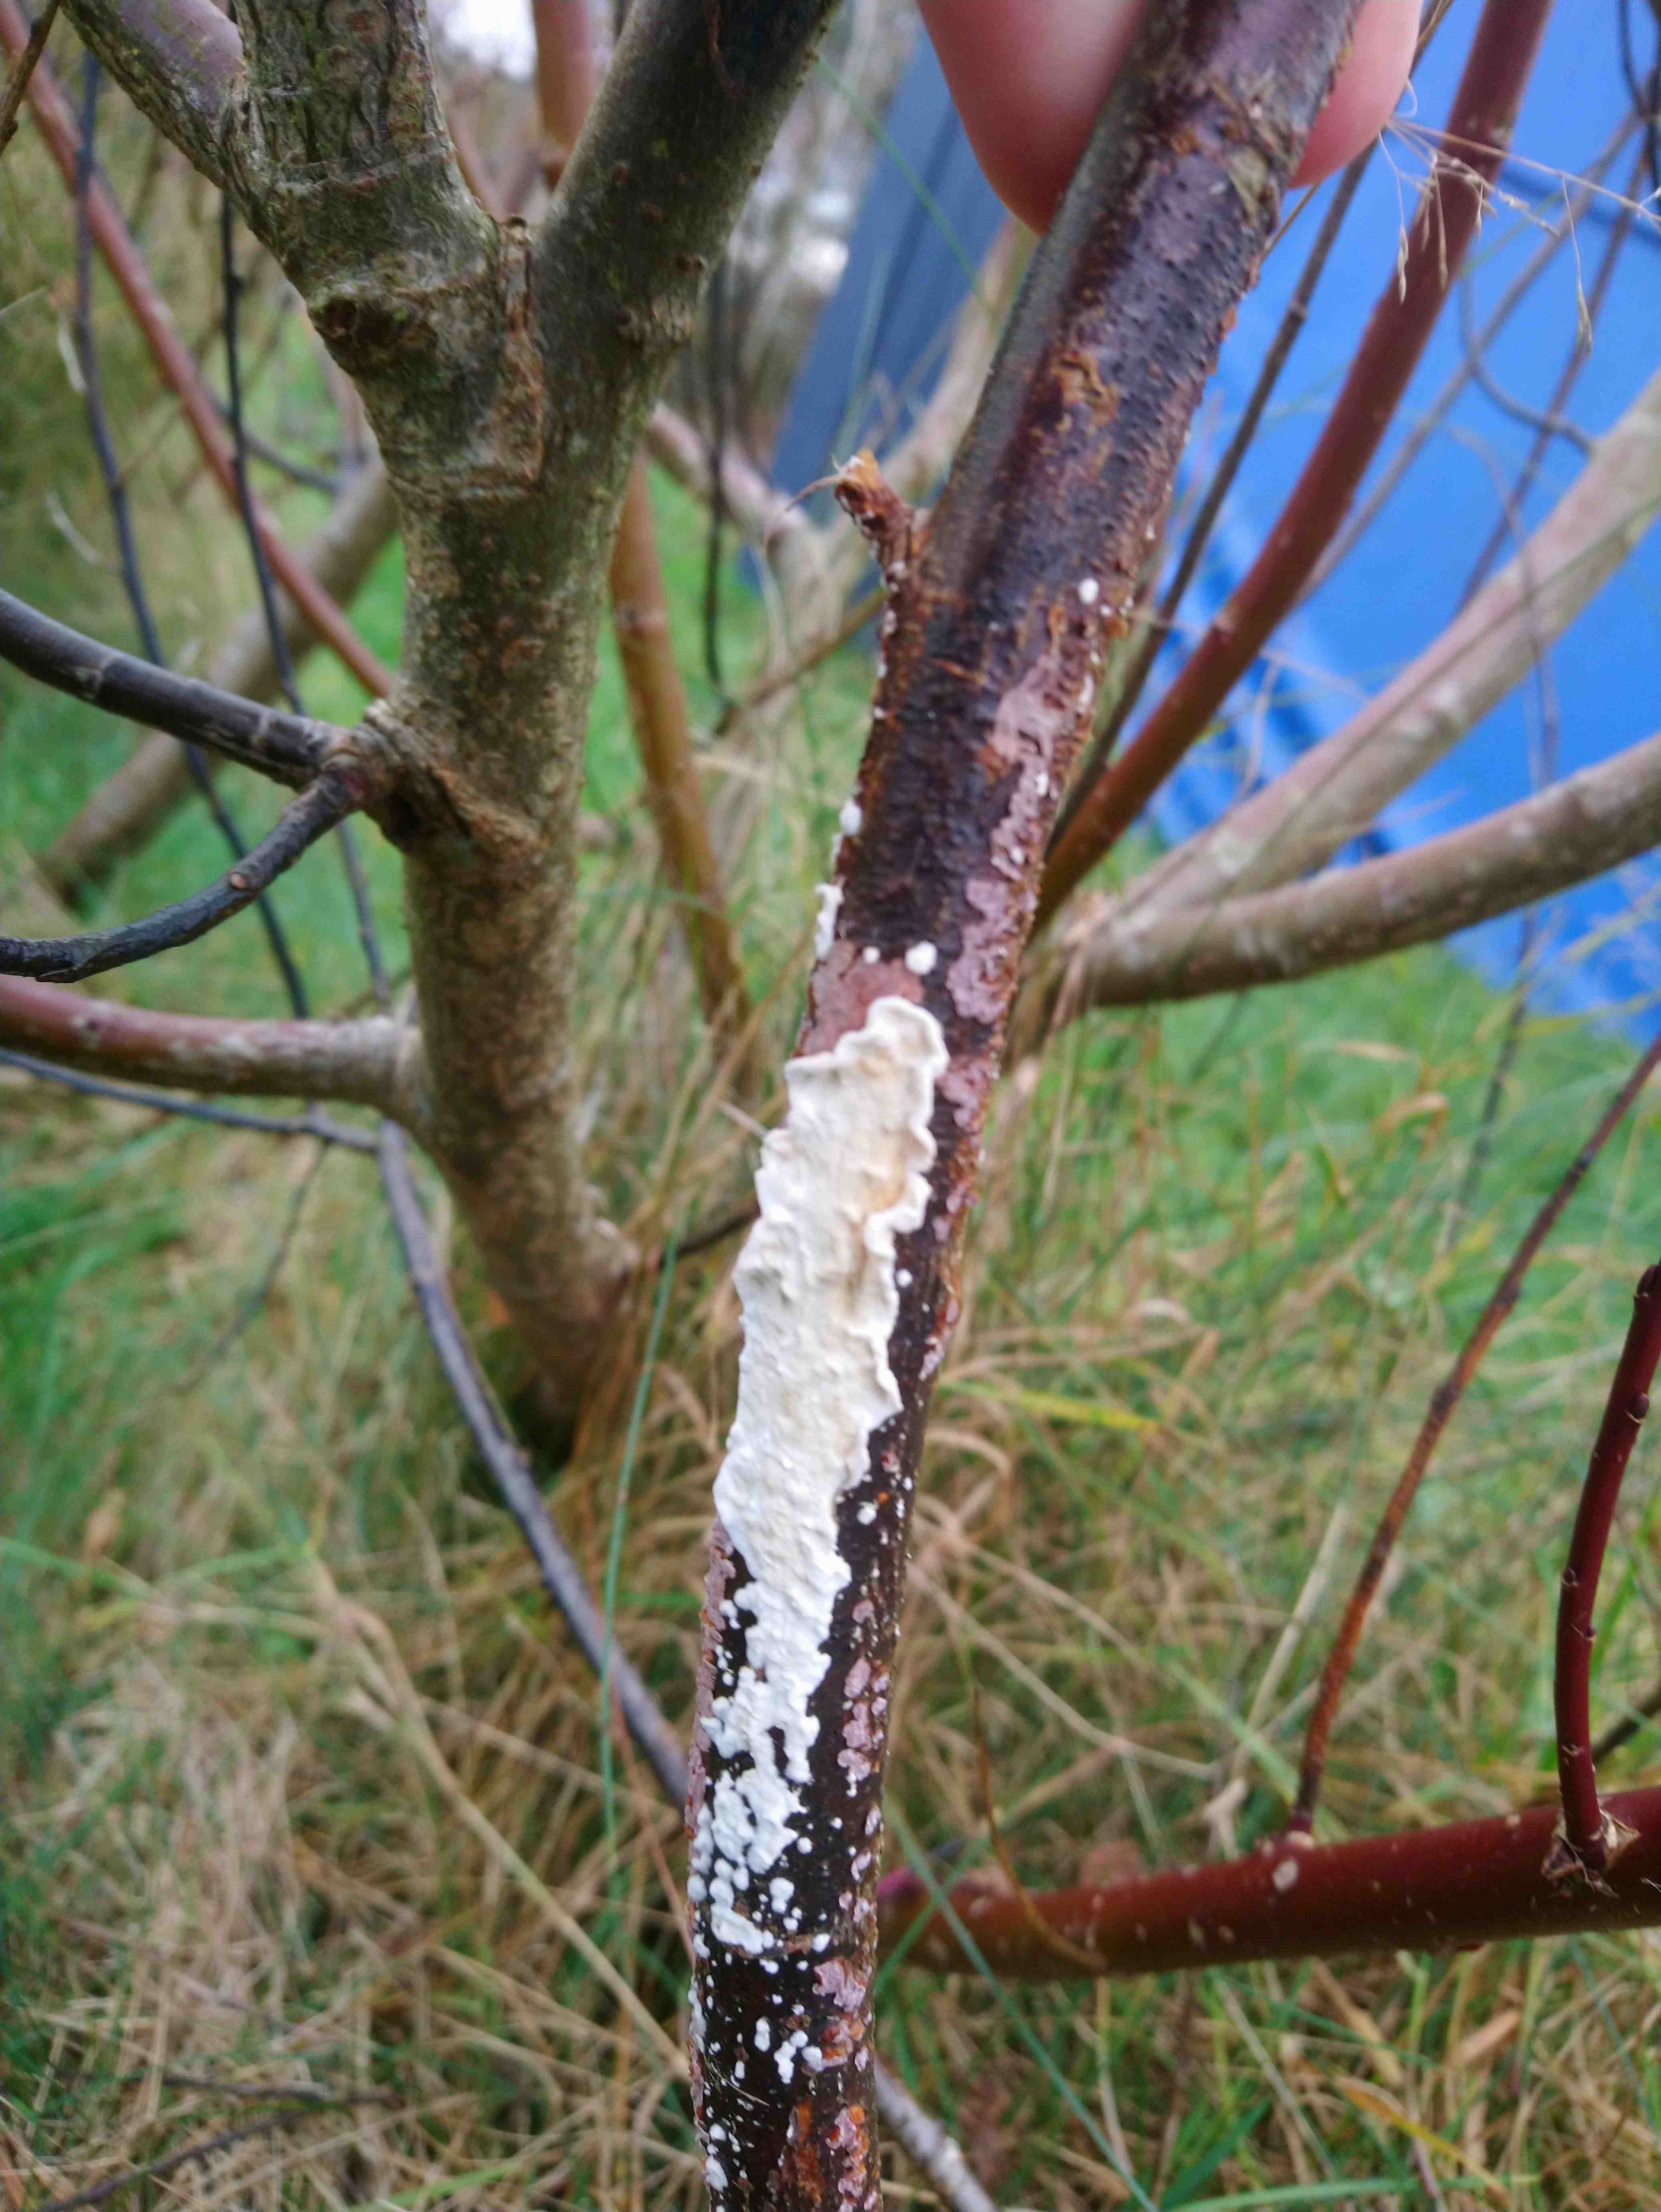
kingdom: Fungi
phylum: Basidiomycota
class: Agaricomycetes
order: Polyporales
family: Irpicaceae
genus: Byssomerulius
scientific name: Byssomerulius corium
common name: læder-åresvamp
